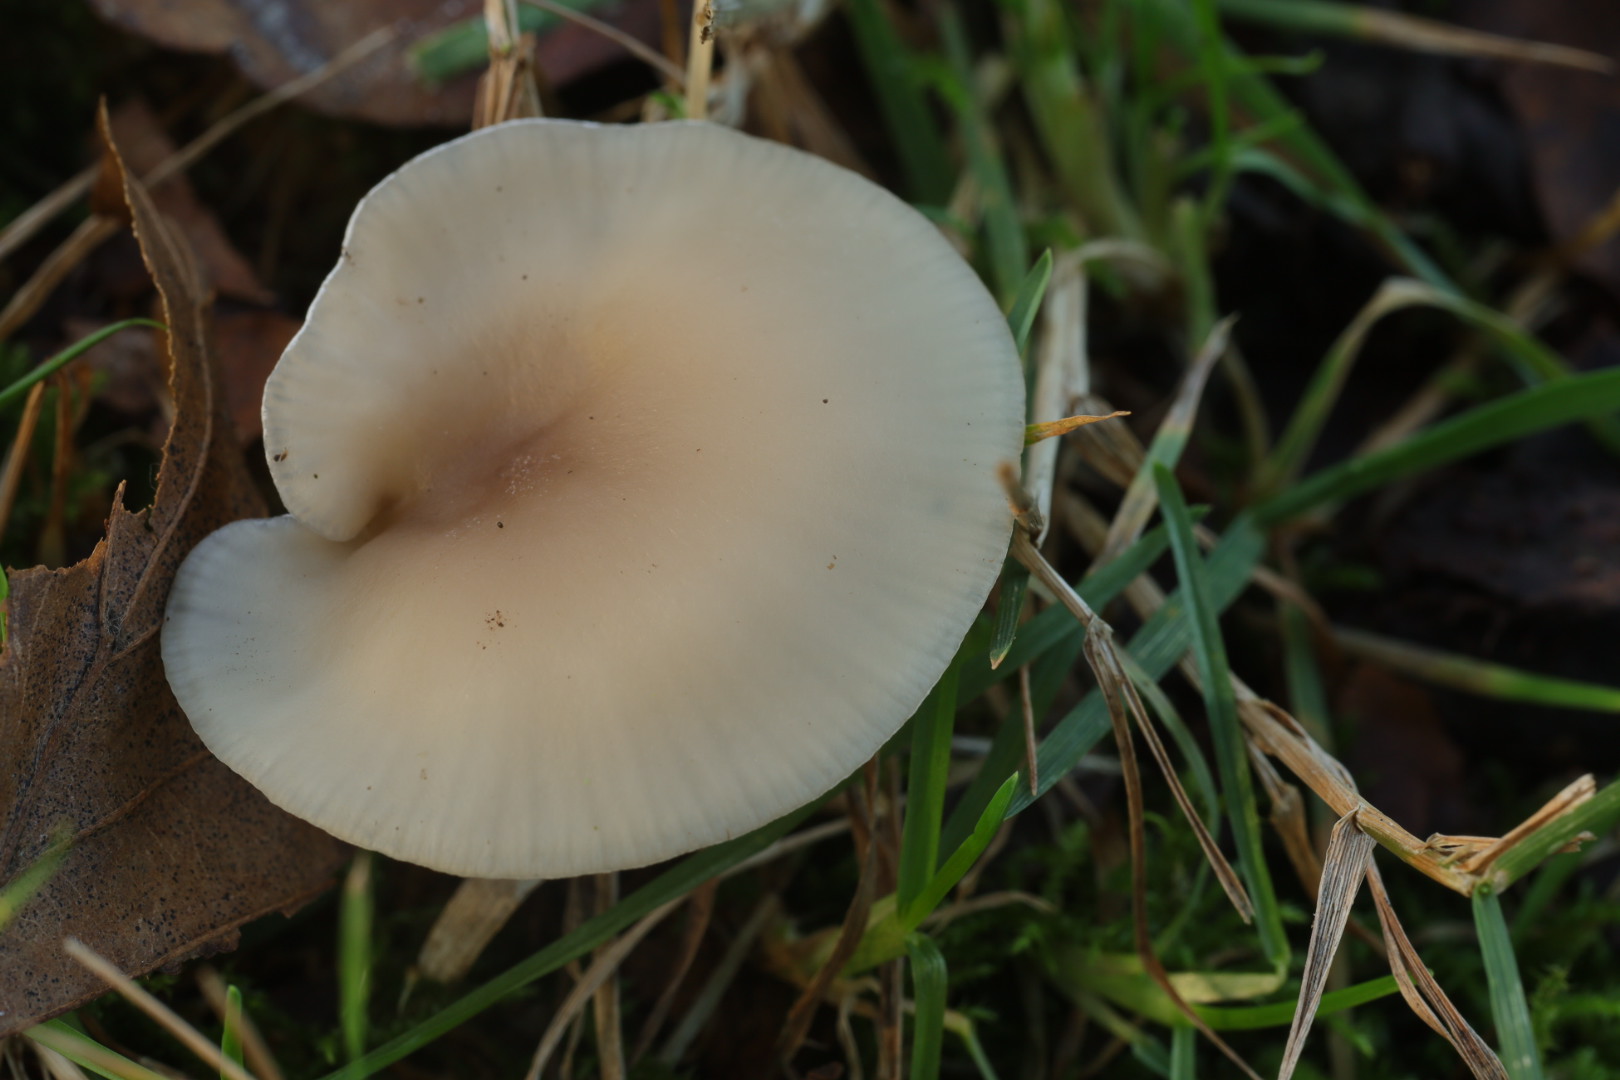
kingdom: Fungi
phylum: Basidiomycota
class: Agaricomycetes
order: Agaricales
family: Tricholomataceae
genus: Clitocybe
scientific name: Clitocybe fragrans
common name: vellugtende tragthat
